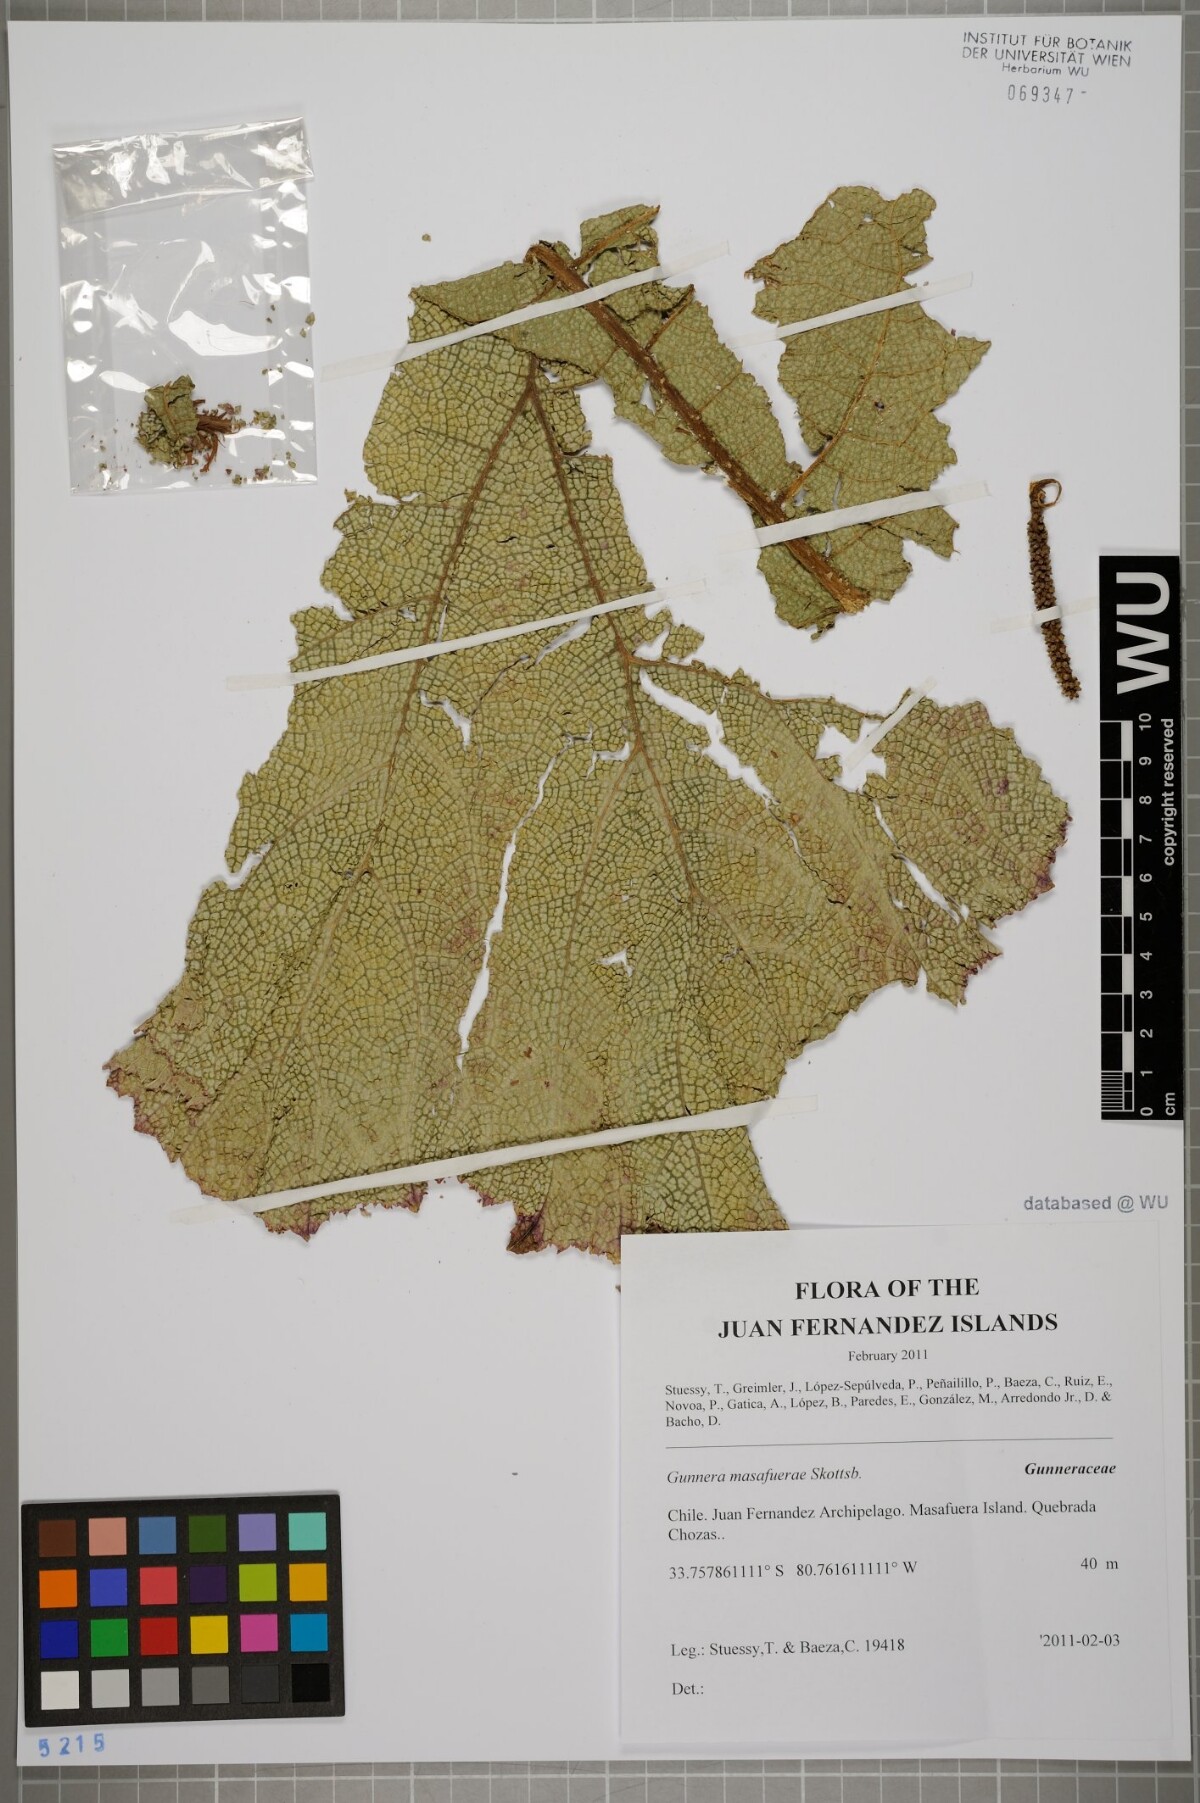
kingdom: Plantae
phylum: Tracheophyta
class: Magnoliopsida
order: Gunnerales
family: Gunneraceae
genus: Gunnera
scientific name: Gunnera masafuerae
